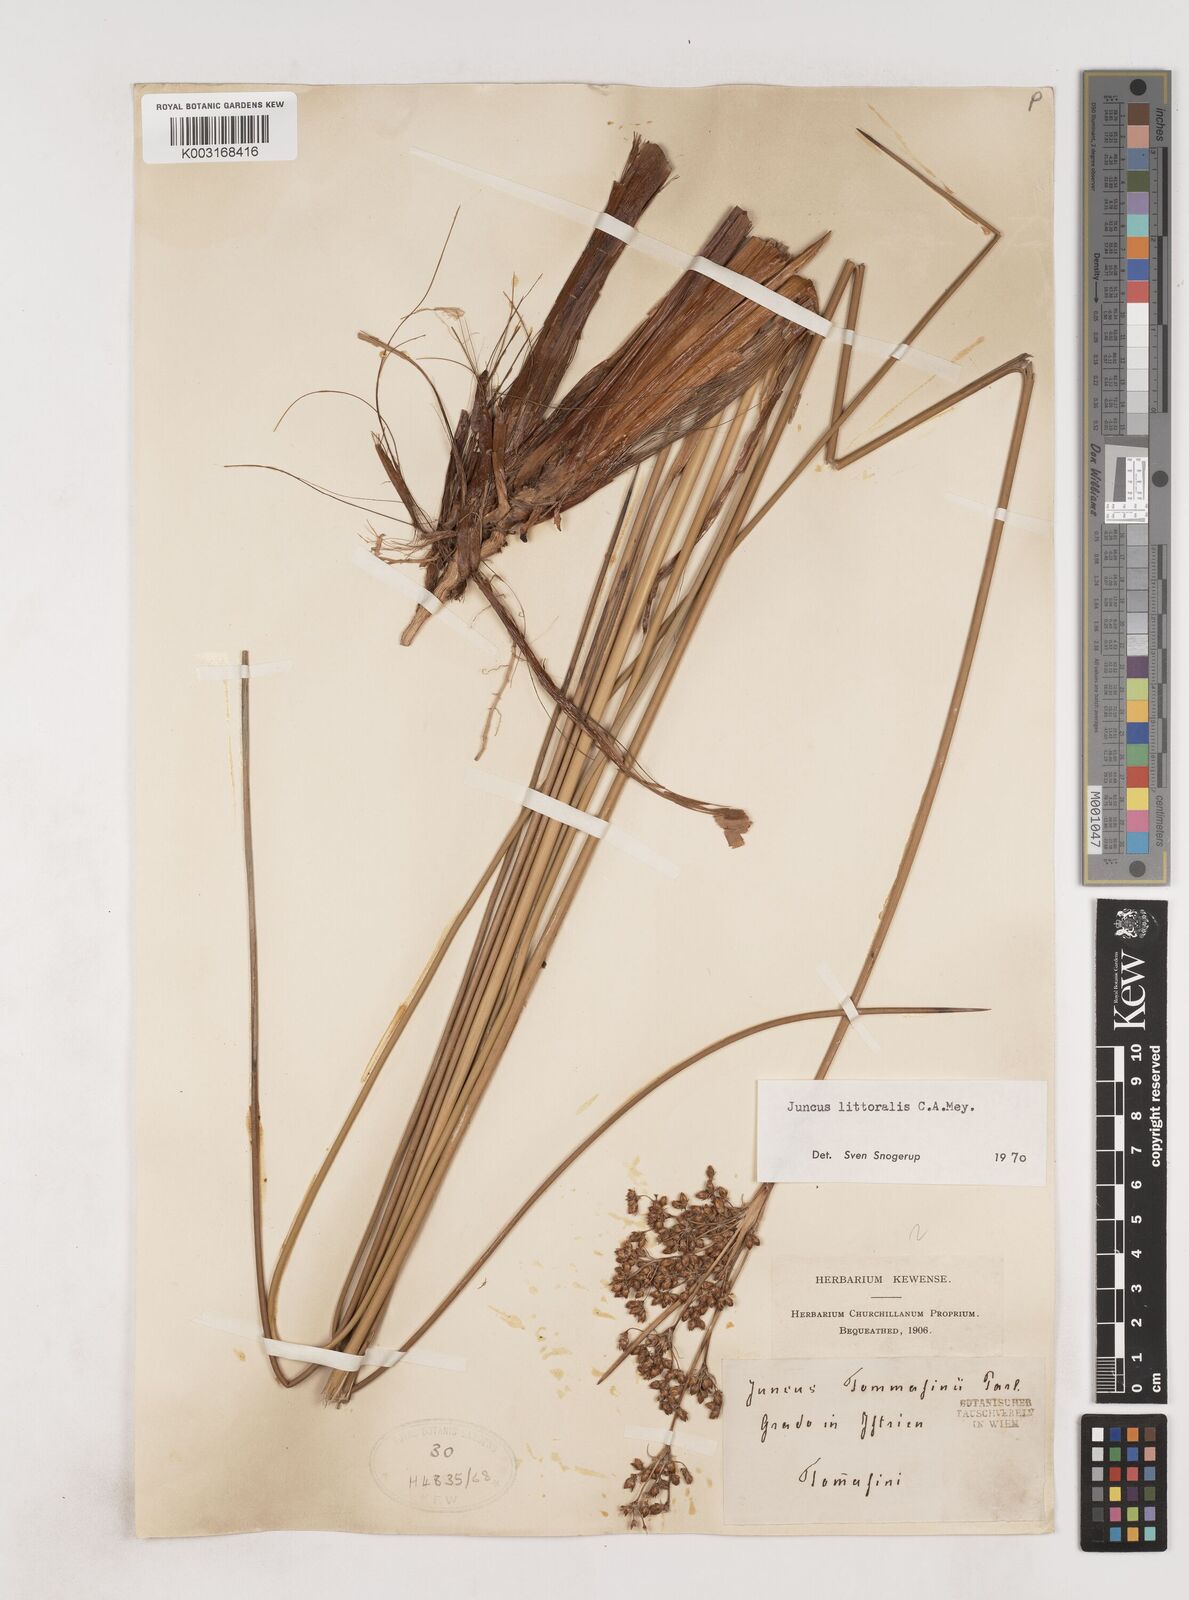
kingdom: Plantae
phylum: Tracheophyta
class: Liliopsida
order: Poales
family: Juncaceae
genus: Juncus
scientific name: Juncus
